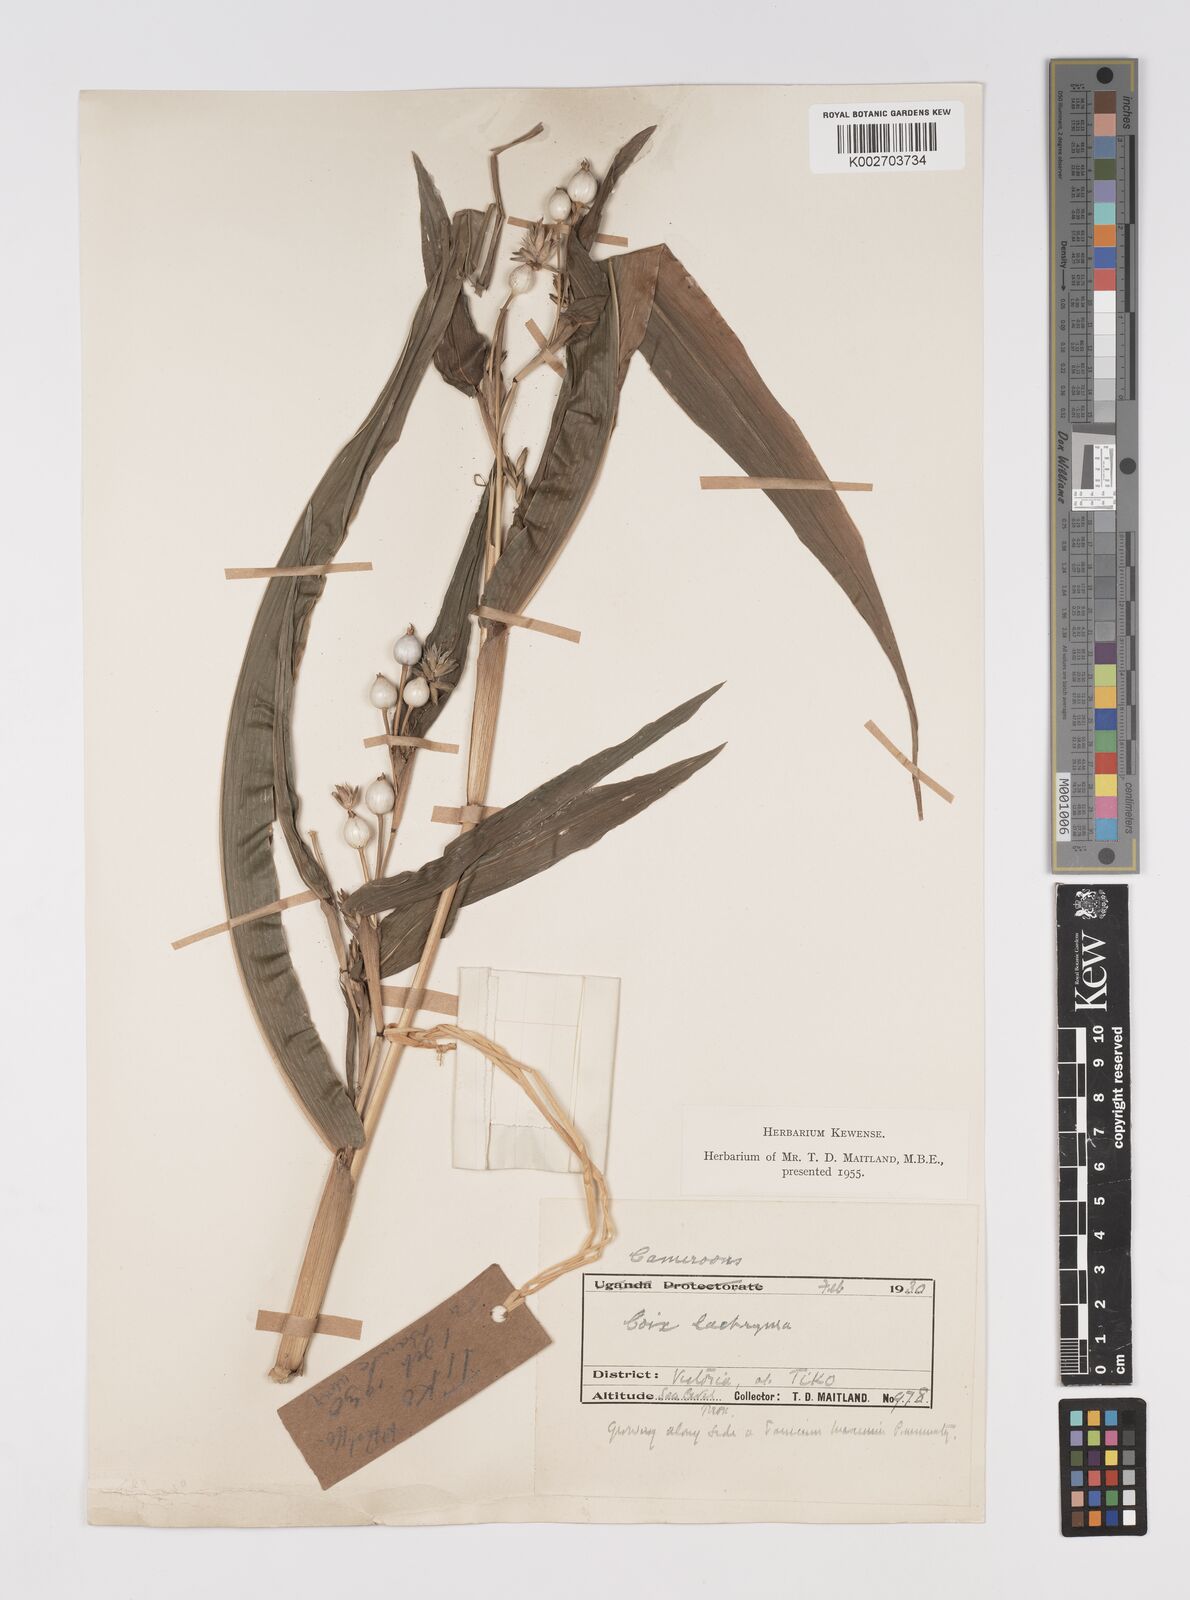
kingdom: Plantae
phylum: Tracheophyta
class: Liliopsida
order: Poales
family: Poaceae
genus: Coix
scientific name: Coix lacryma-jobi
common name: Job's tears
